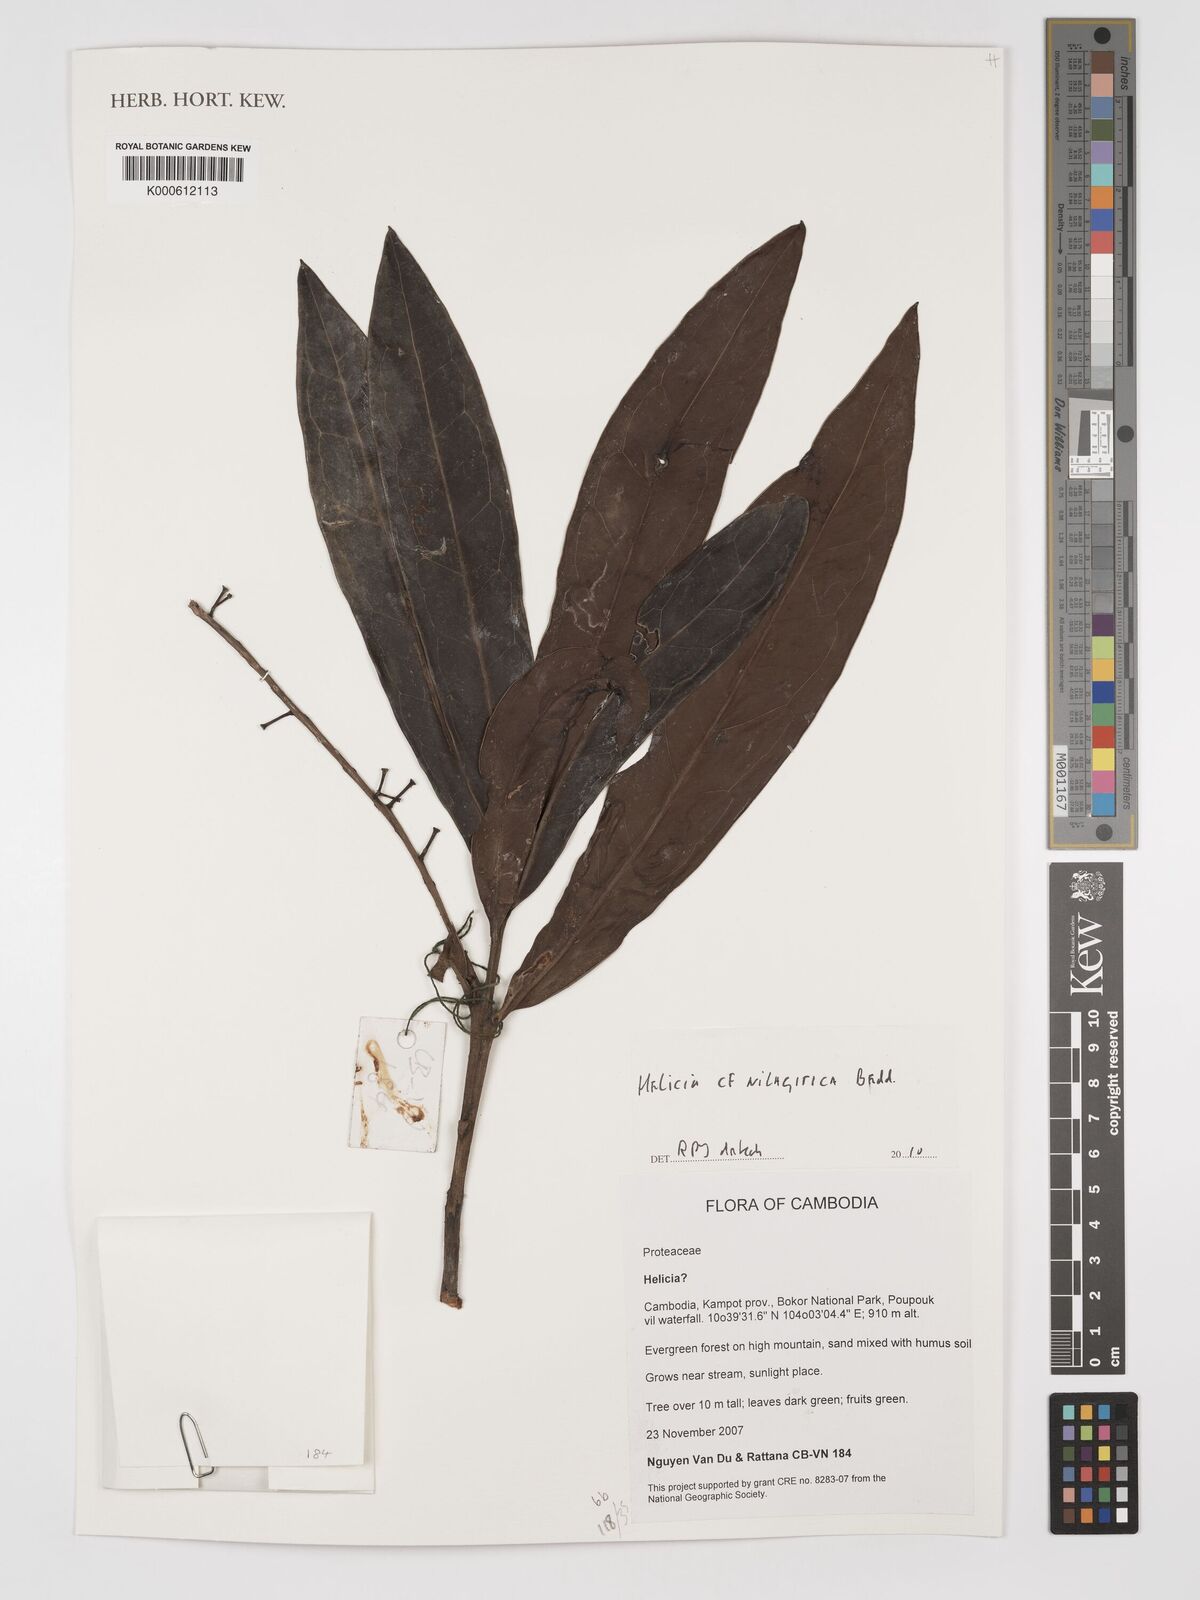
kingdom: Plantae
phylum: Tracheophyta
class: Magnoliopsida
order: Proteales
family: Proteaceae
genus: Helicia
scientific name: Helicia nilagirica
